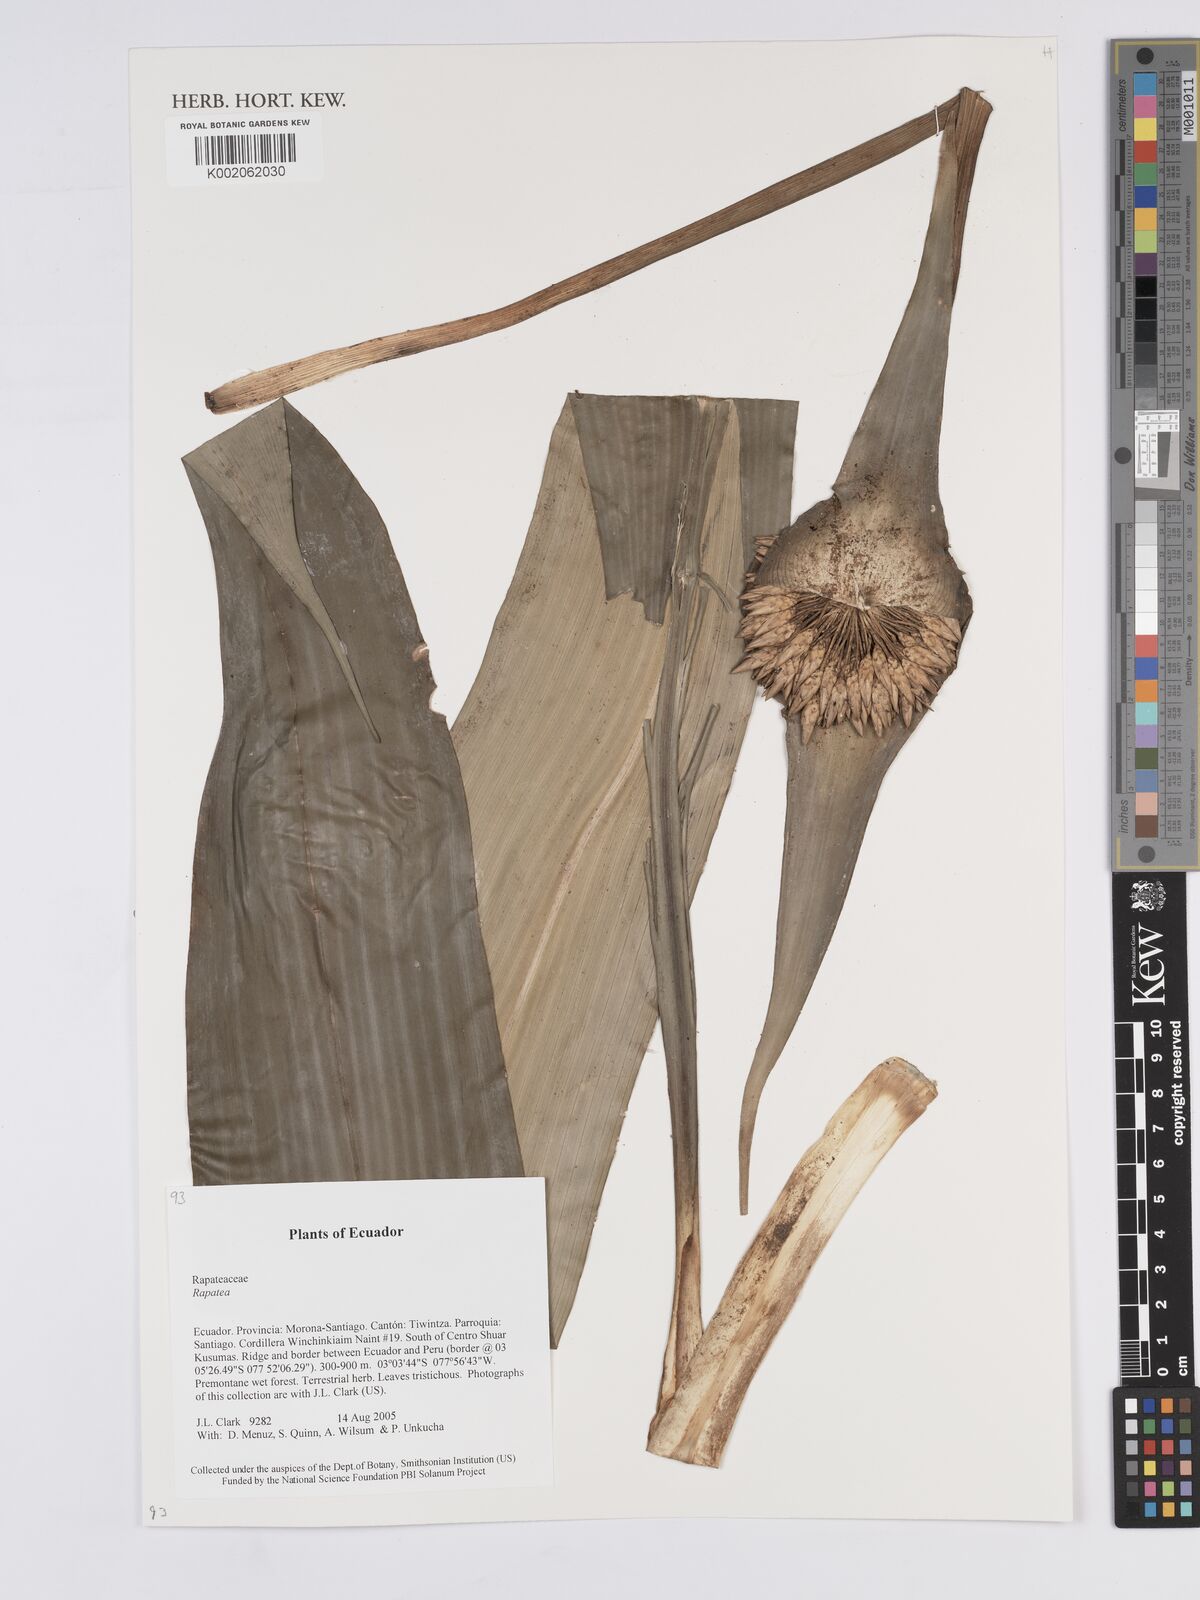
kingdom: Plantae
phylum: Tracheophyta
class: Liliopsida
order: Poales
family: Rapateaceae
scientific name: Rapateaceae
